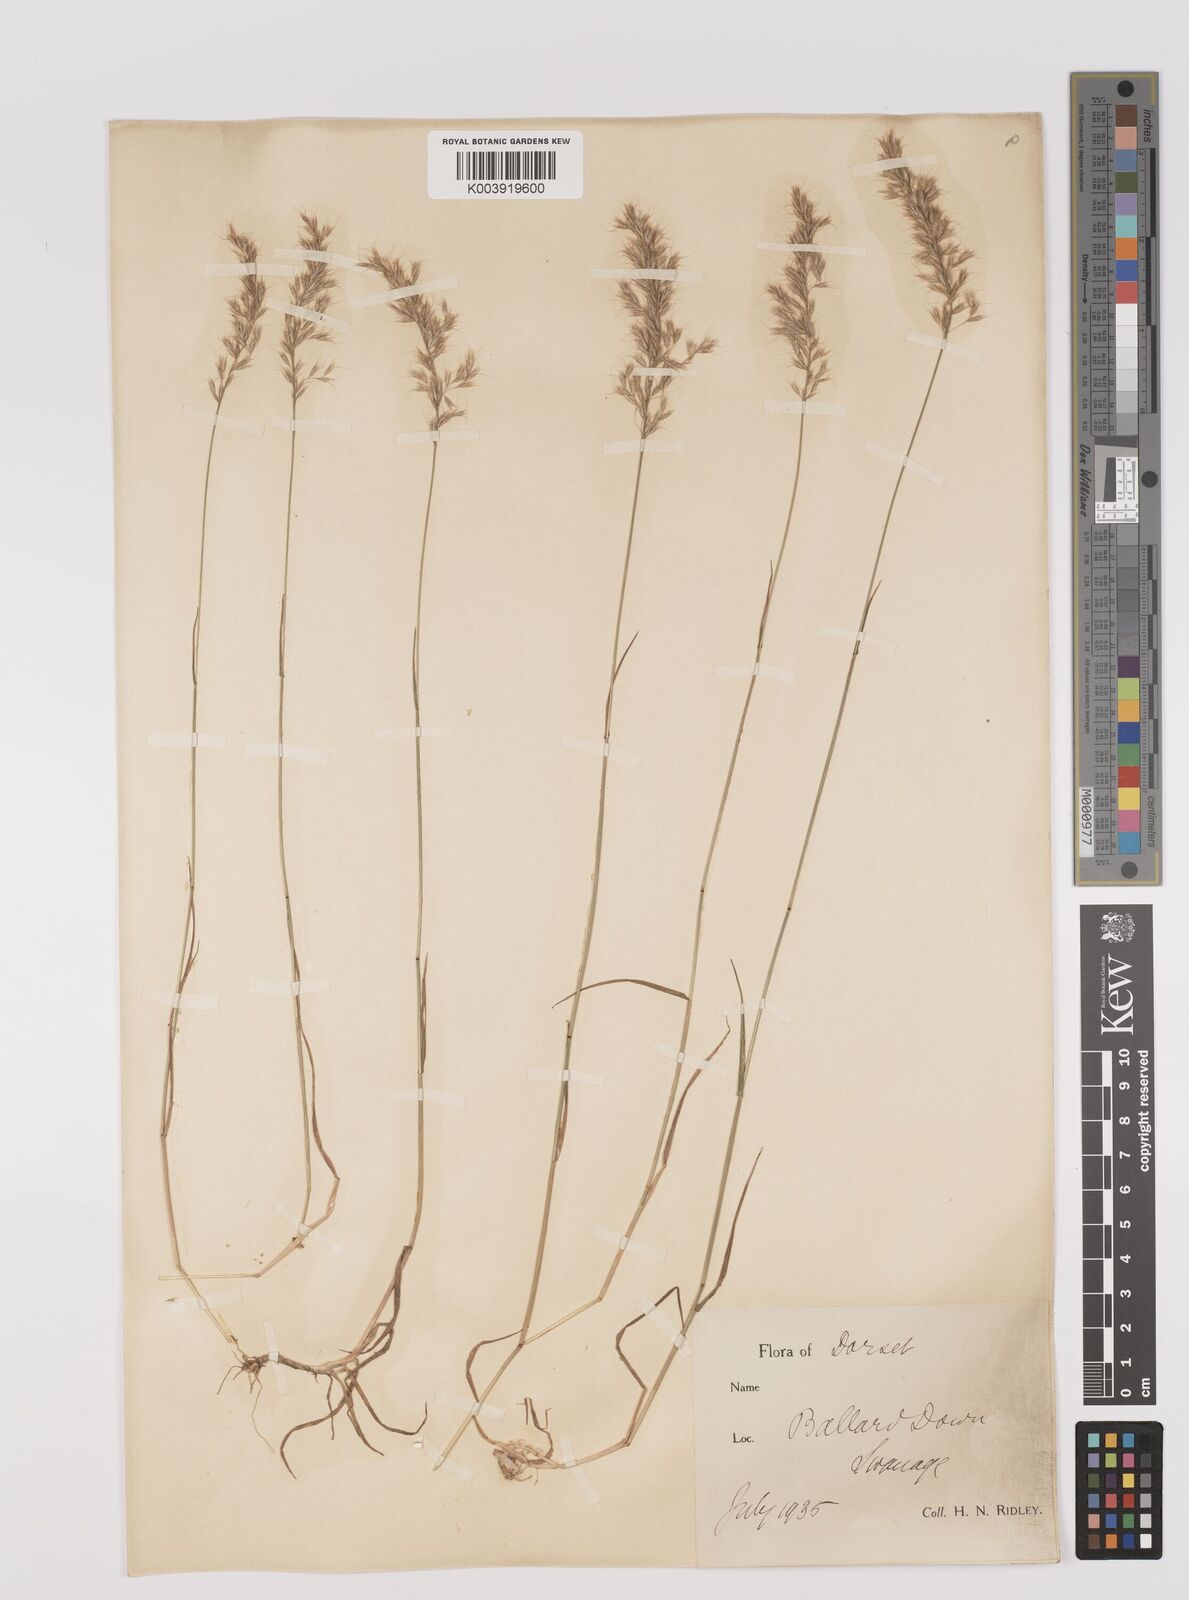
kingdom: Plantae
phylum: Tracheophyta
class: Liliopsida
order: Poales
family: Poaceae
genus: Trisetum
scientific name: Trisetum flavescens
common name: Yellow oat-grass
